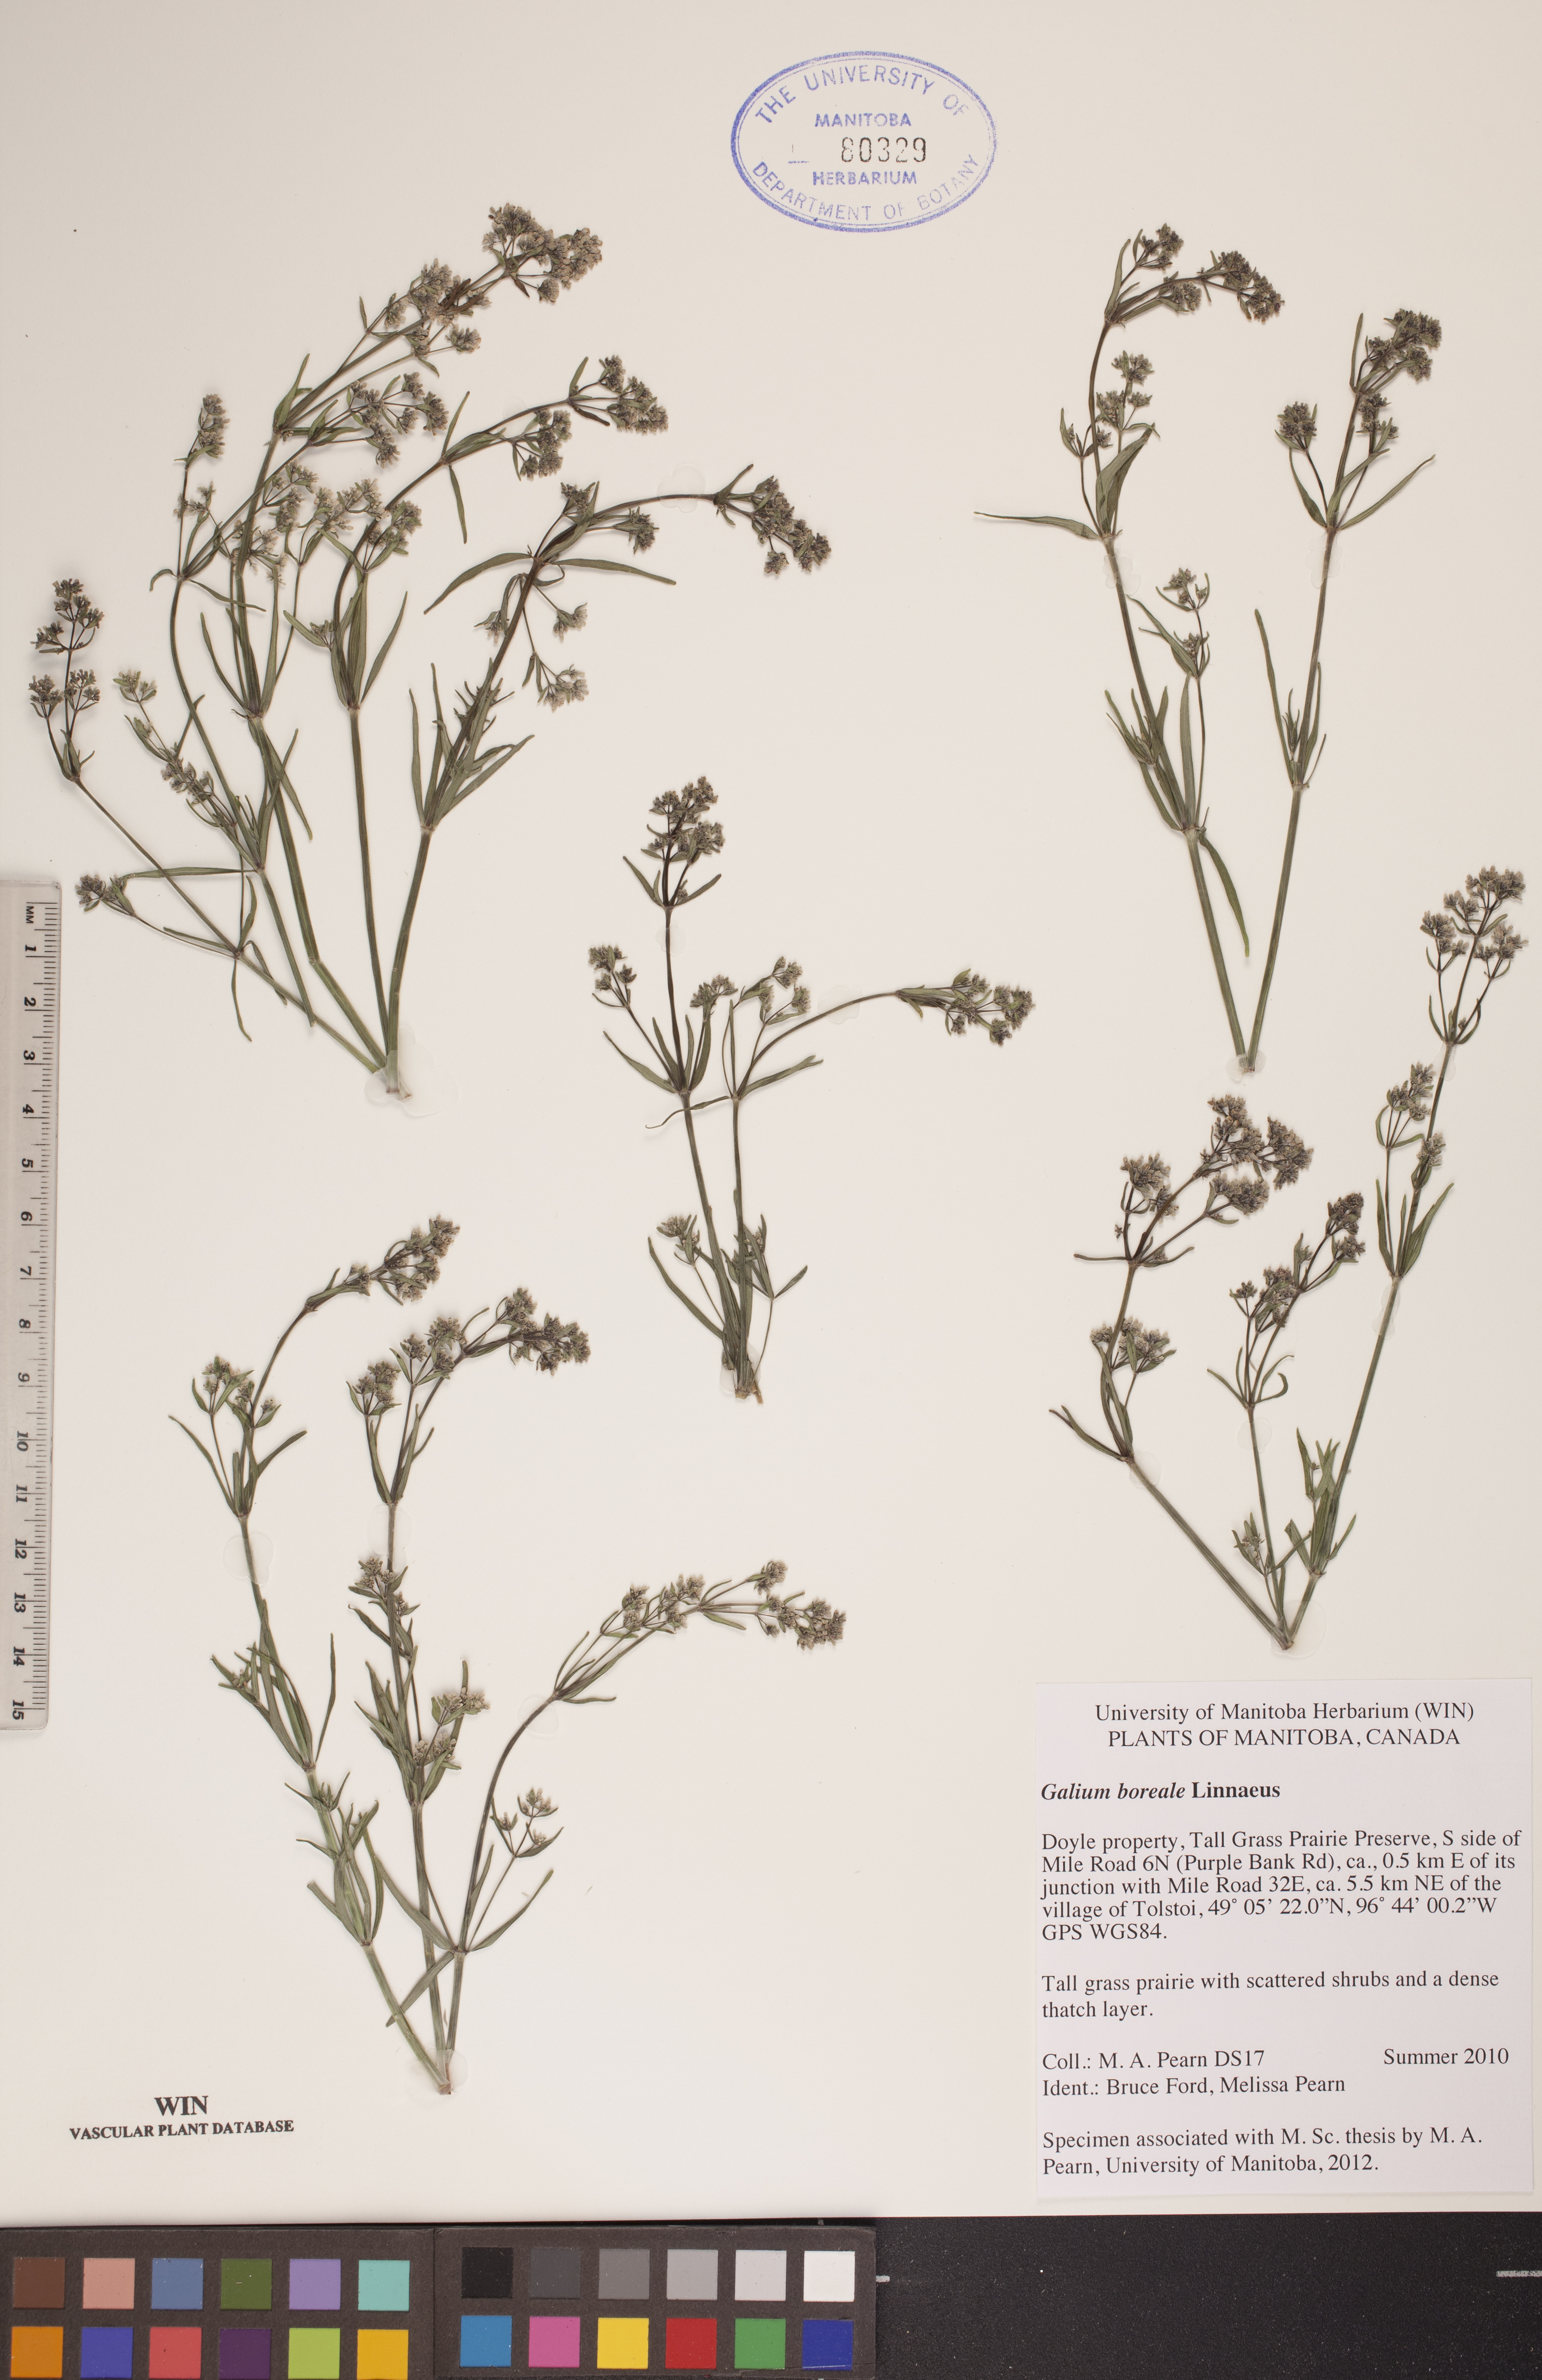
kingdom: Plantae
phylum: Tracheophyta
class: Magnoliopsida
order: Gentianales
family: Rubiaceae
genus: Galium
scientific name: Galium boreale
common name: Northern bedstraw
